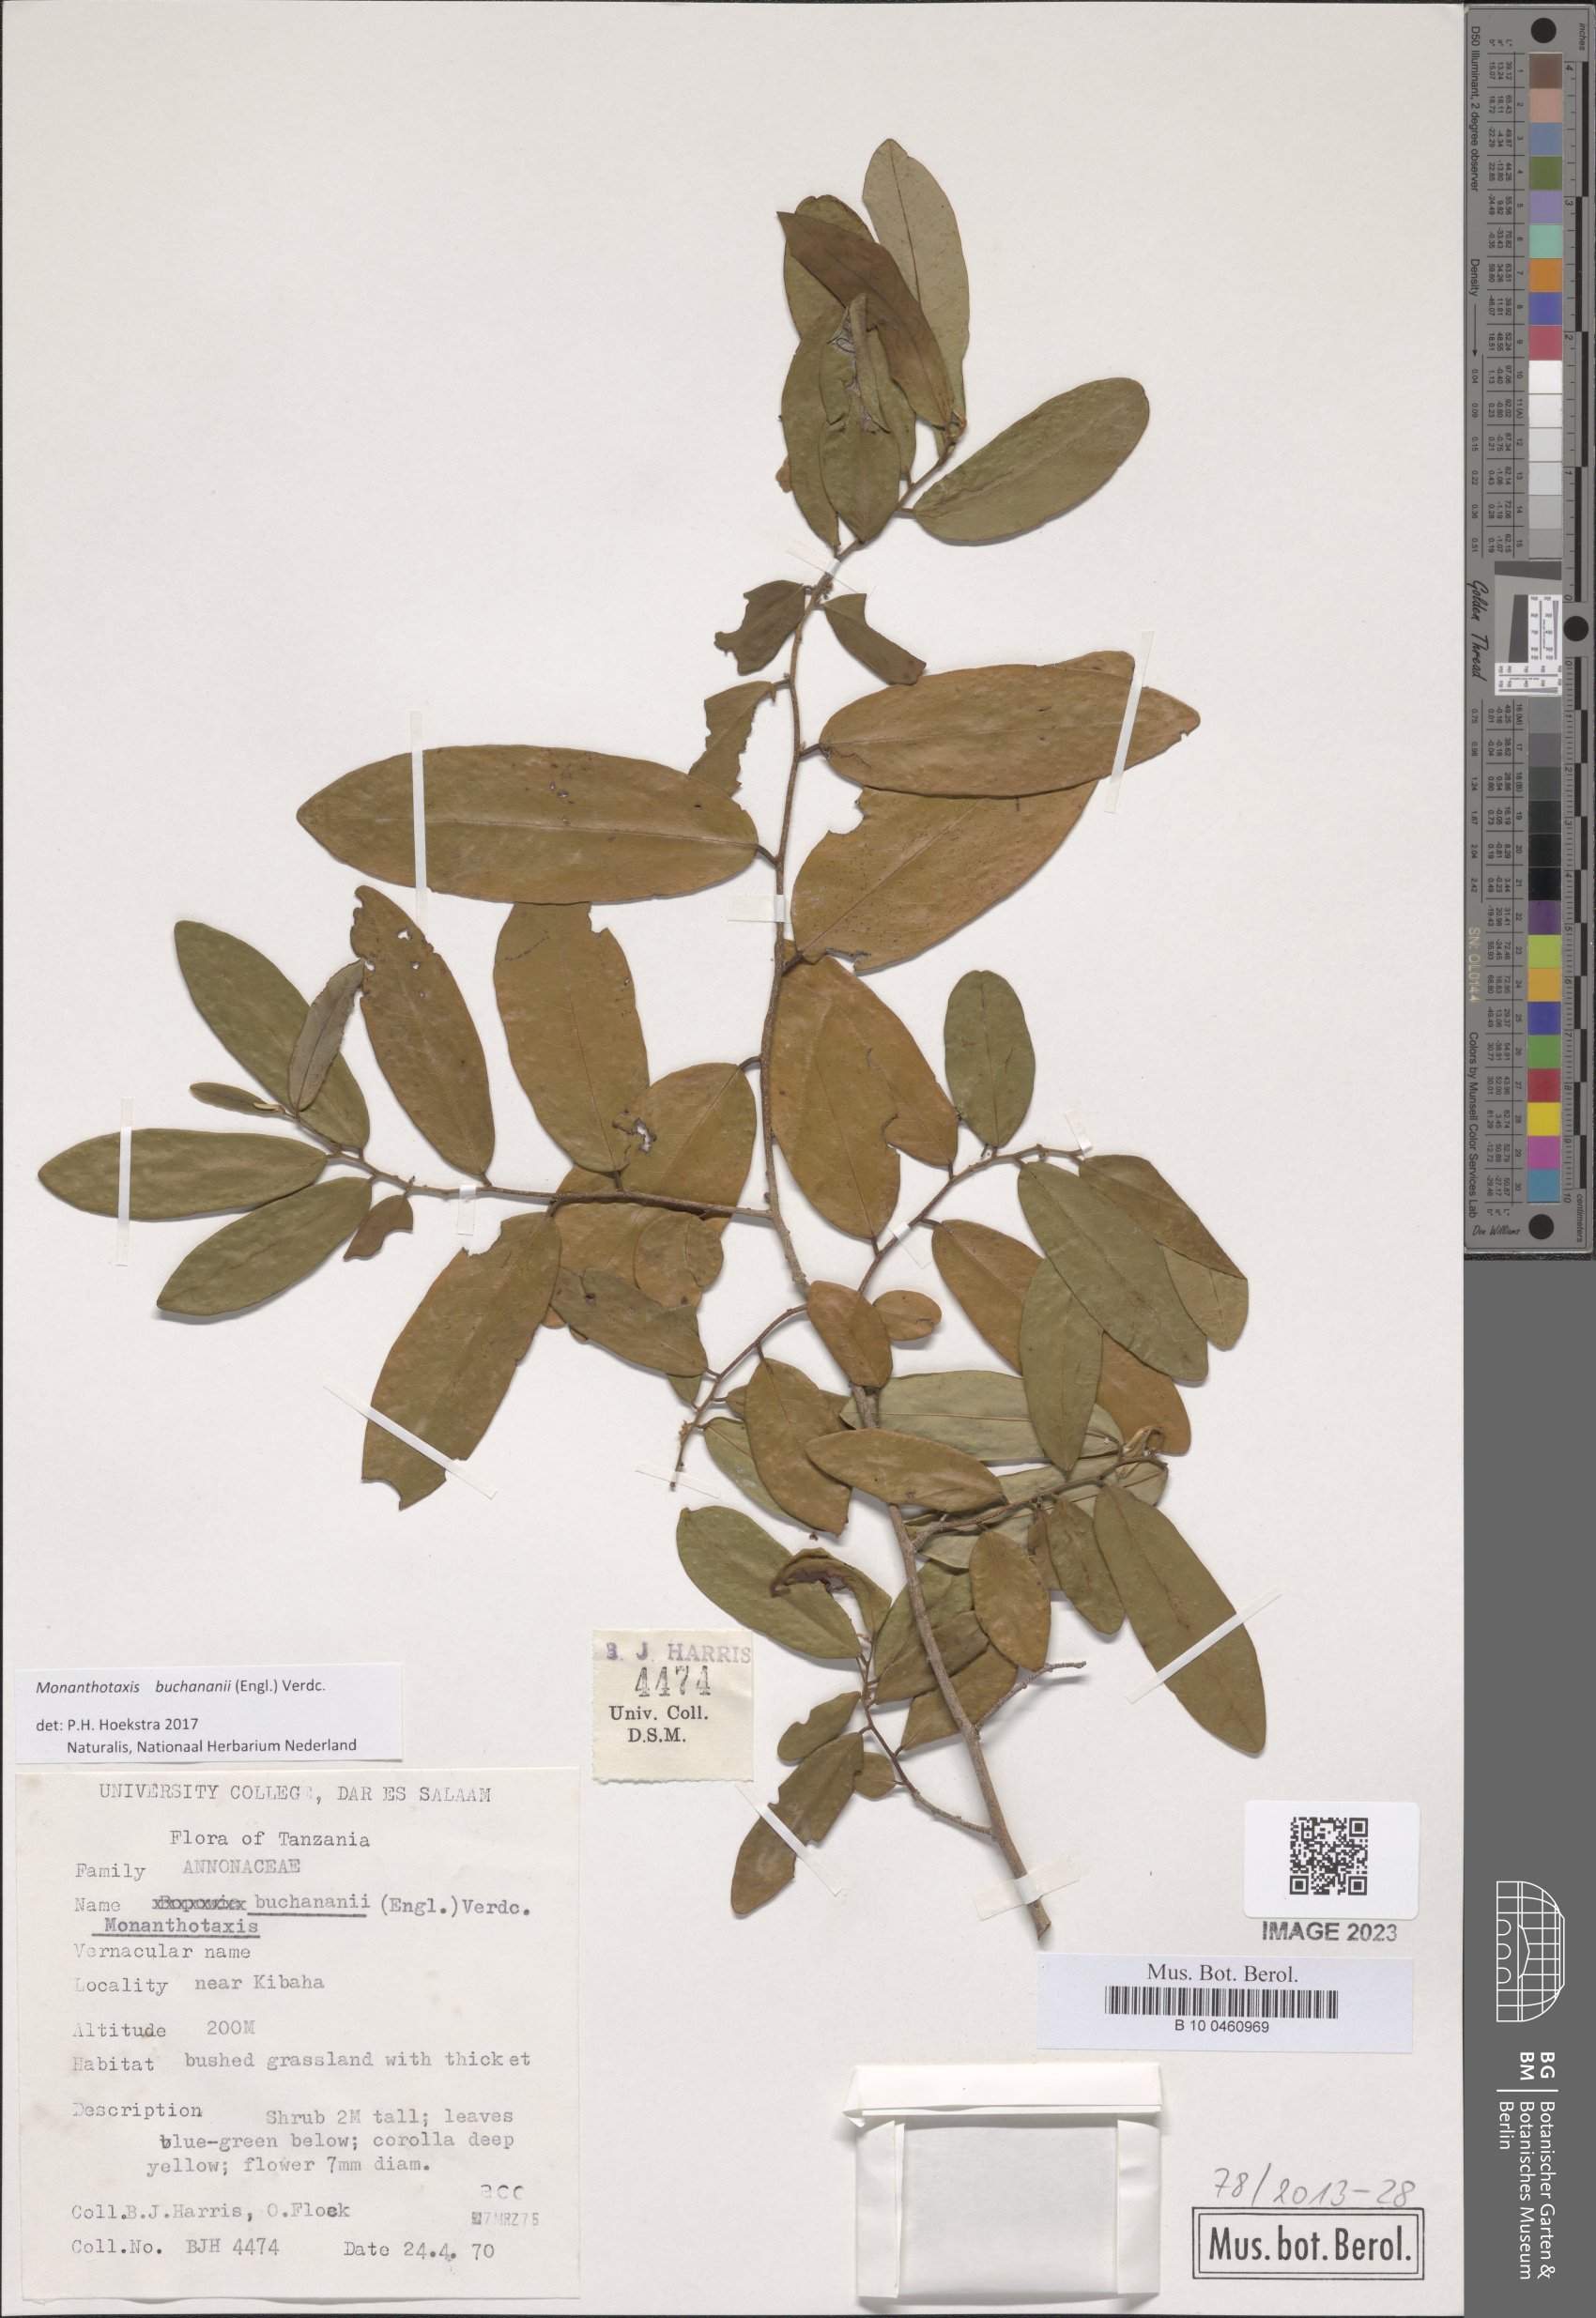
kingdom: Plantae
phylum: Tracheophyta
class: Magnoliopsida
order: Magnoliales
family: Annonaceae
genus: Monanthotaxis
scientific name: Monanthotaxis buchananii
